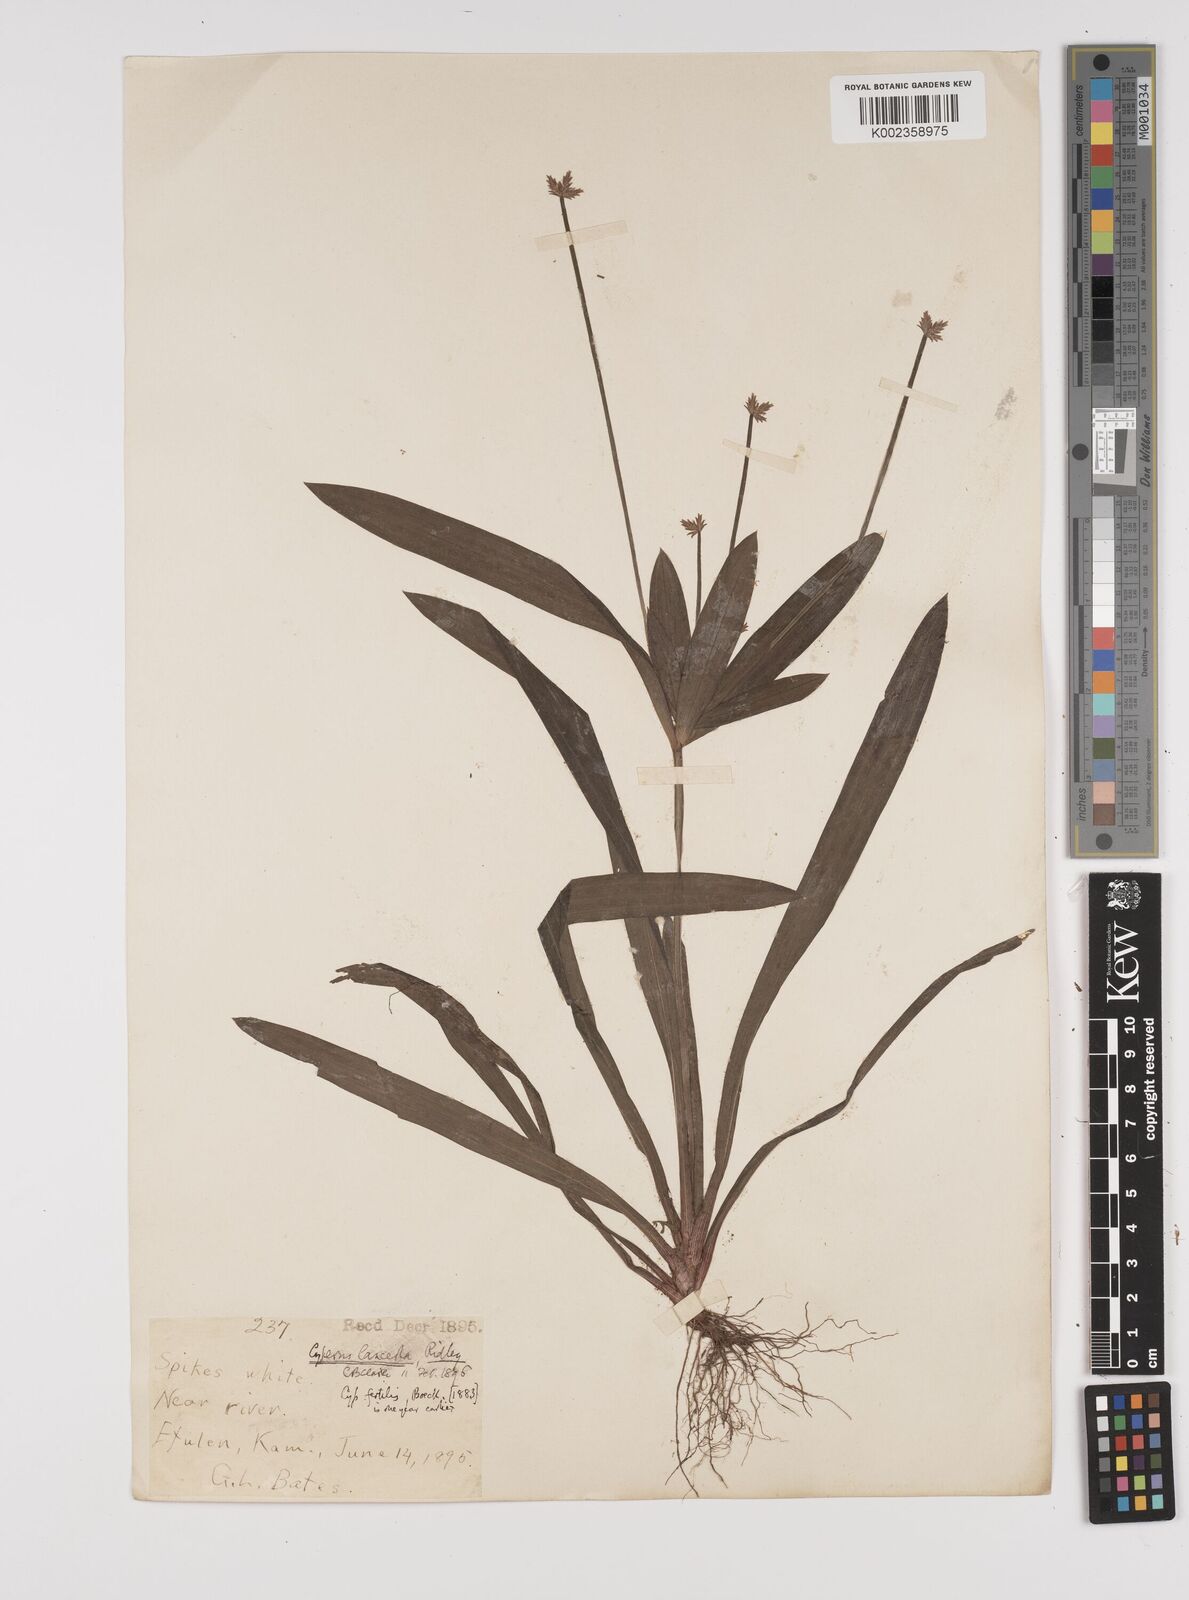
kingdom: Plantae
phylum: Tracheophyta
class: Liliopsida
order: Poales
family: Cyperaceae
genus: Cyperus
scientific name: Cyperus fertilis
